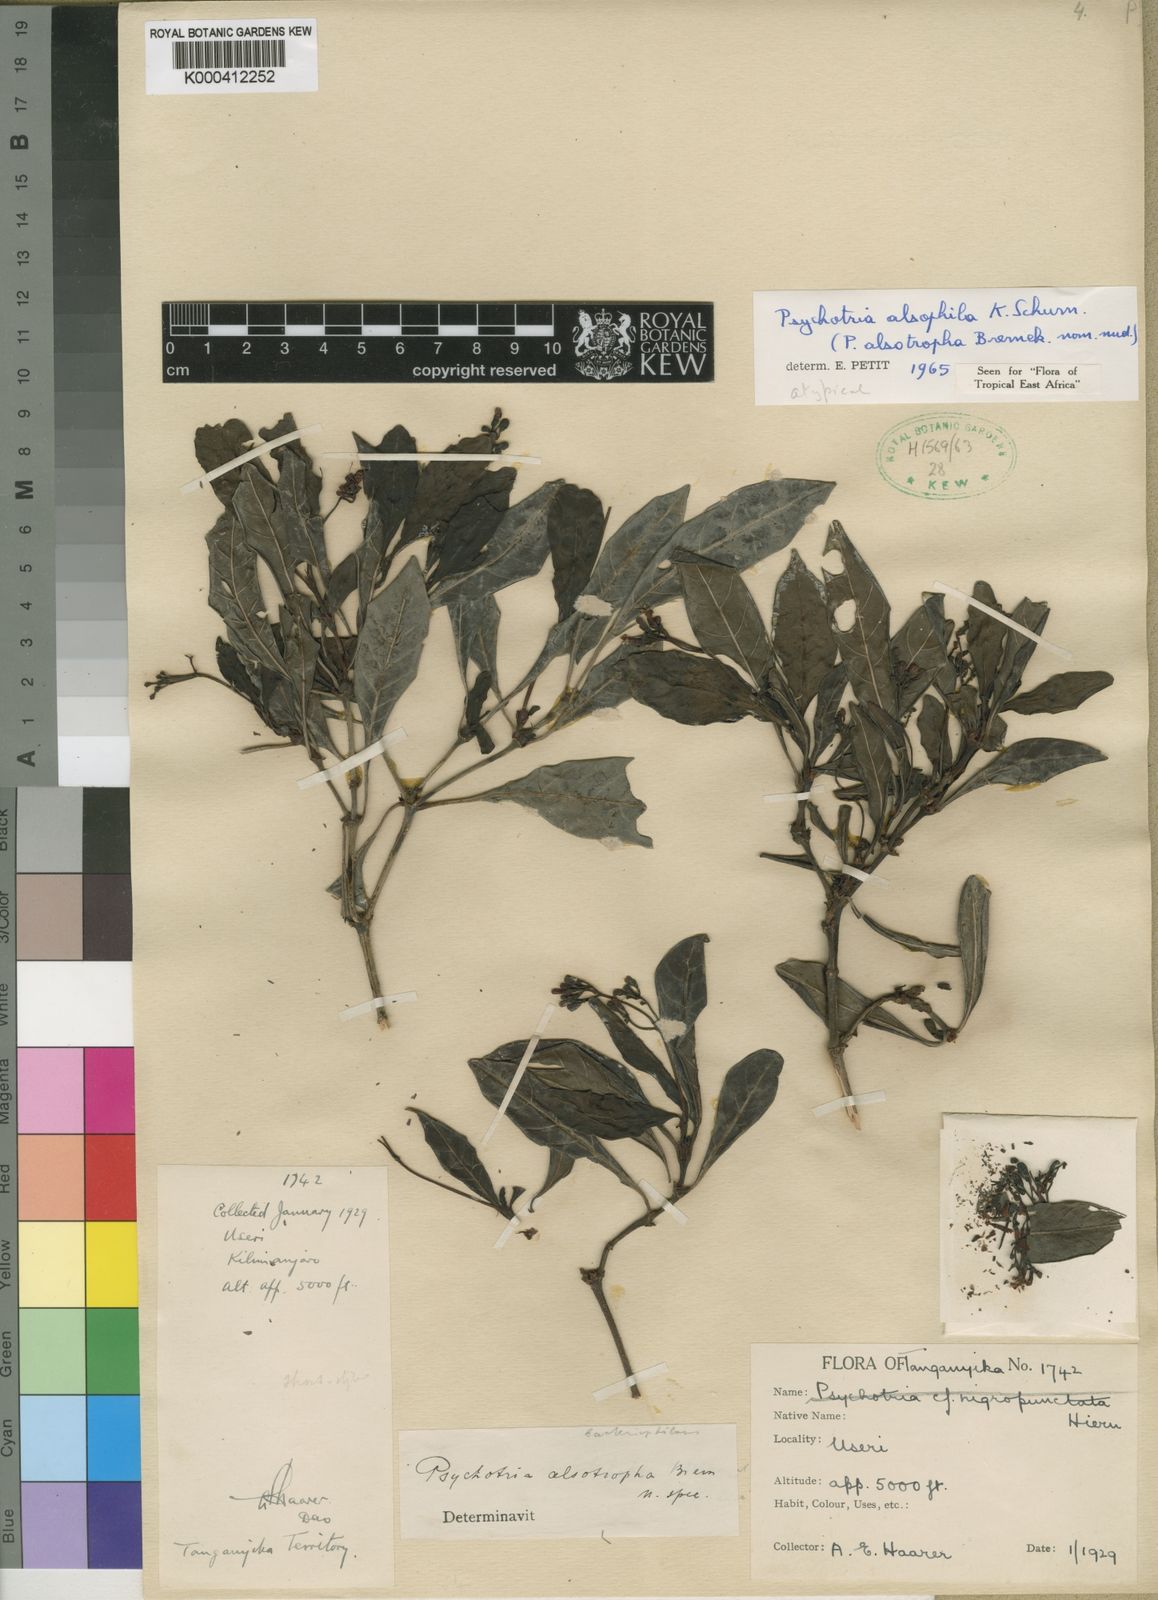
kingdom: Plantae
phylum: Tracheophyta
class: Magnoliopsida
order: Gentianales
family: Rubiaceae
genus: Psychotria
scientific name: Psychotria alsophila
